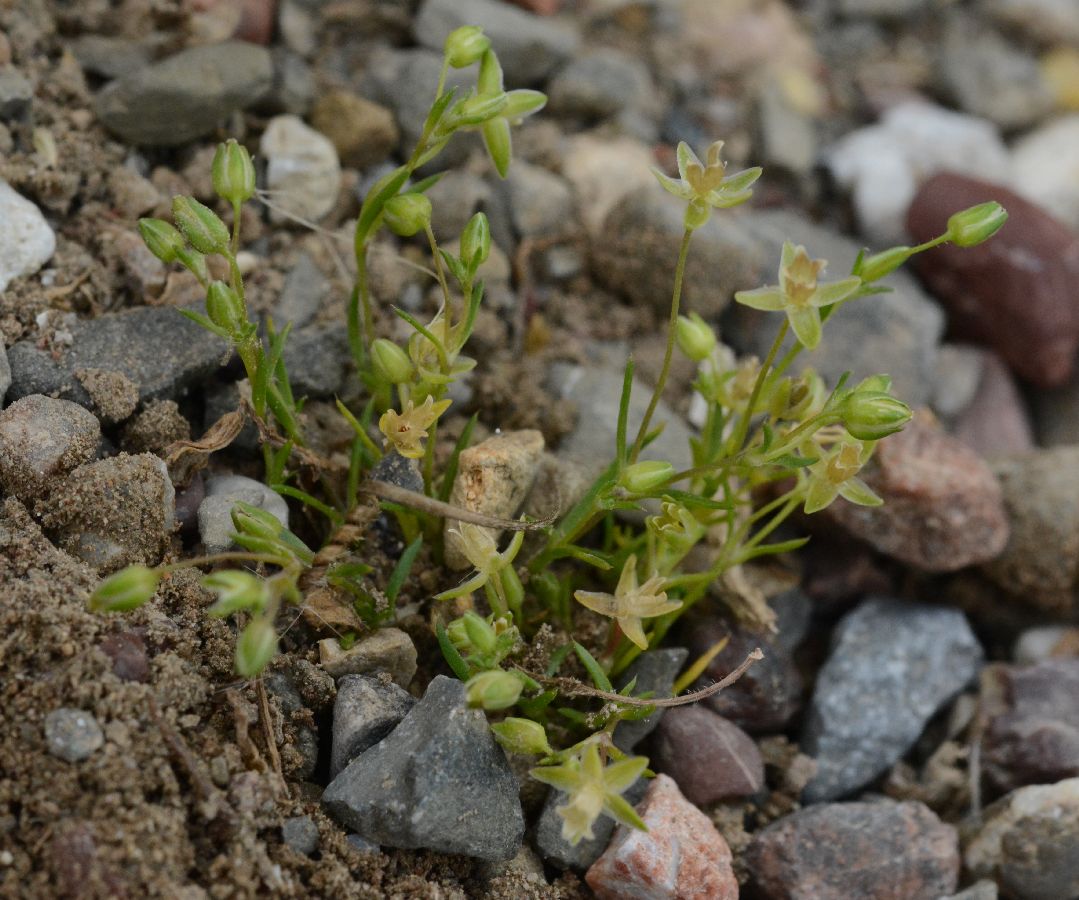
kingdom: Plantae
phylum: Tracheophyta
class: Magnoliopsida
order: Caryophyllales
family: Caryophyllaceae
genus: Sagina
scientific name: Sagina apetala
